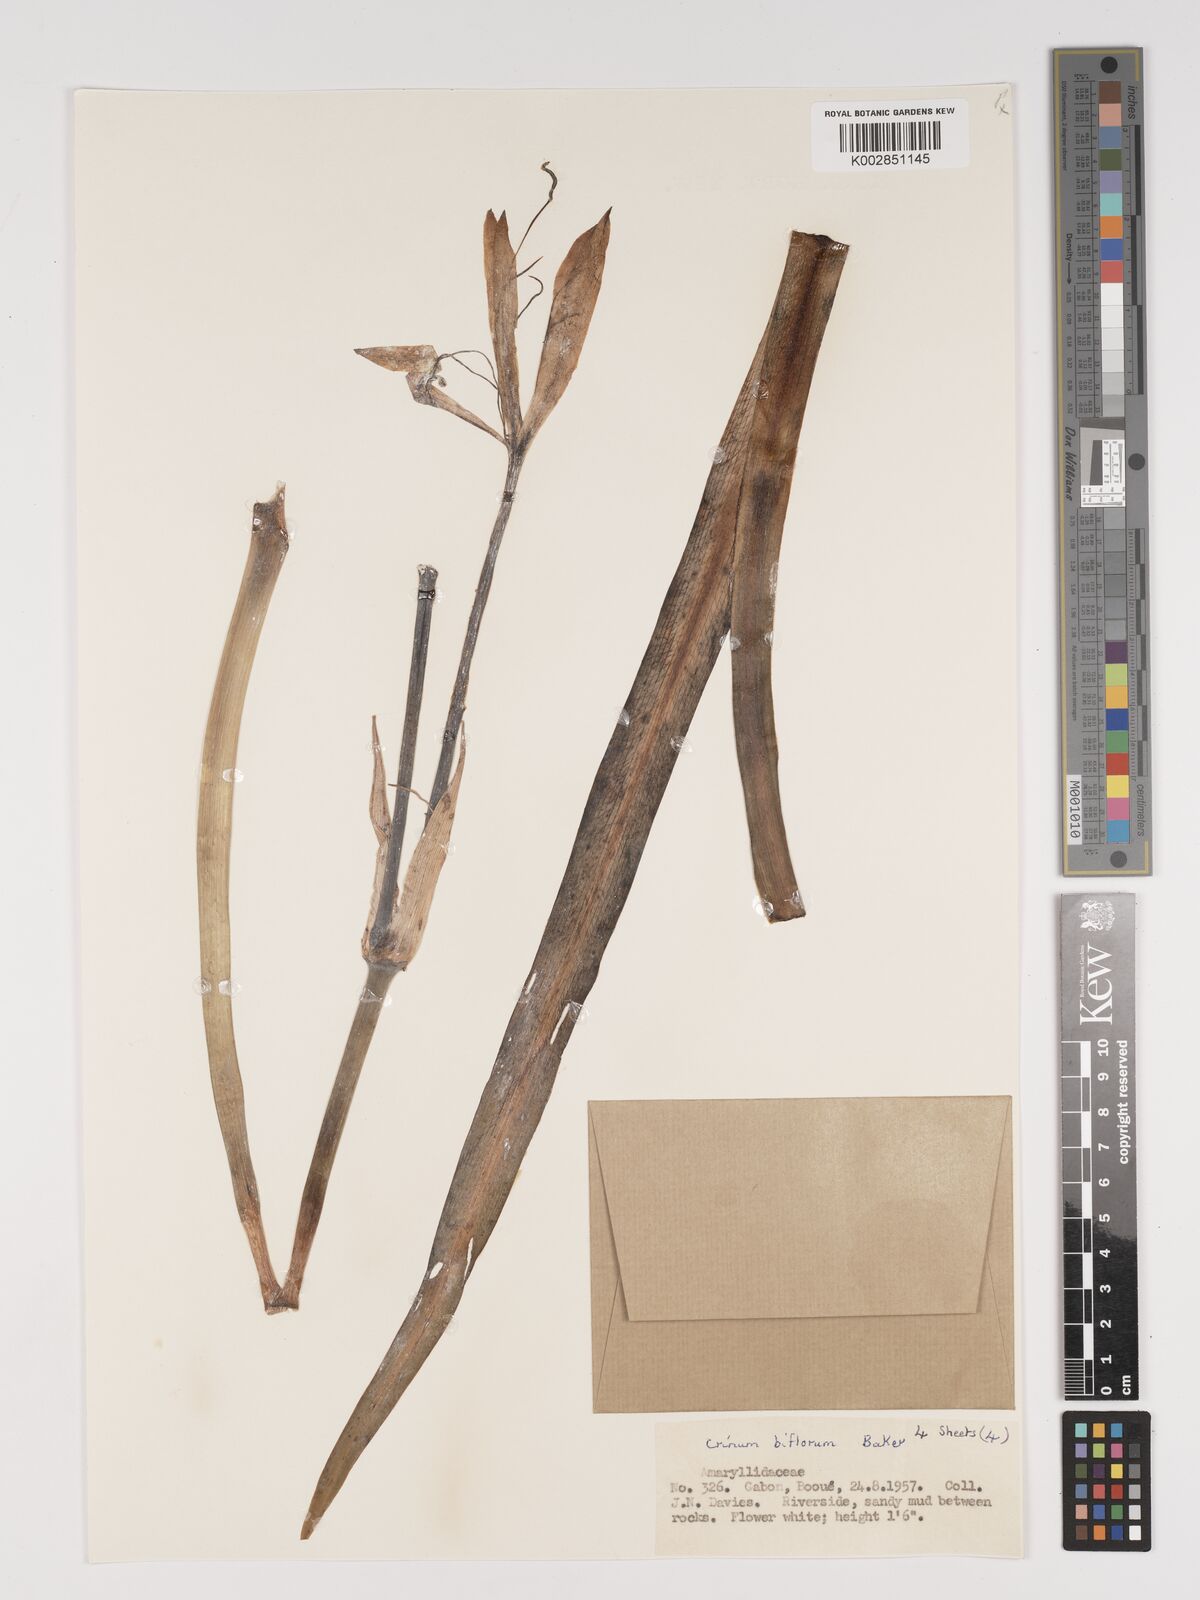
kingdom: Plantae
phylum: Tracheophyta
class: Liliopsida
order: Asparagales
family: Amaryllidaceae
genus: Crinum
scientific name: Crinum nordaliae
